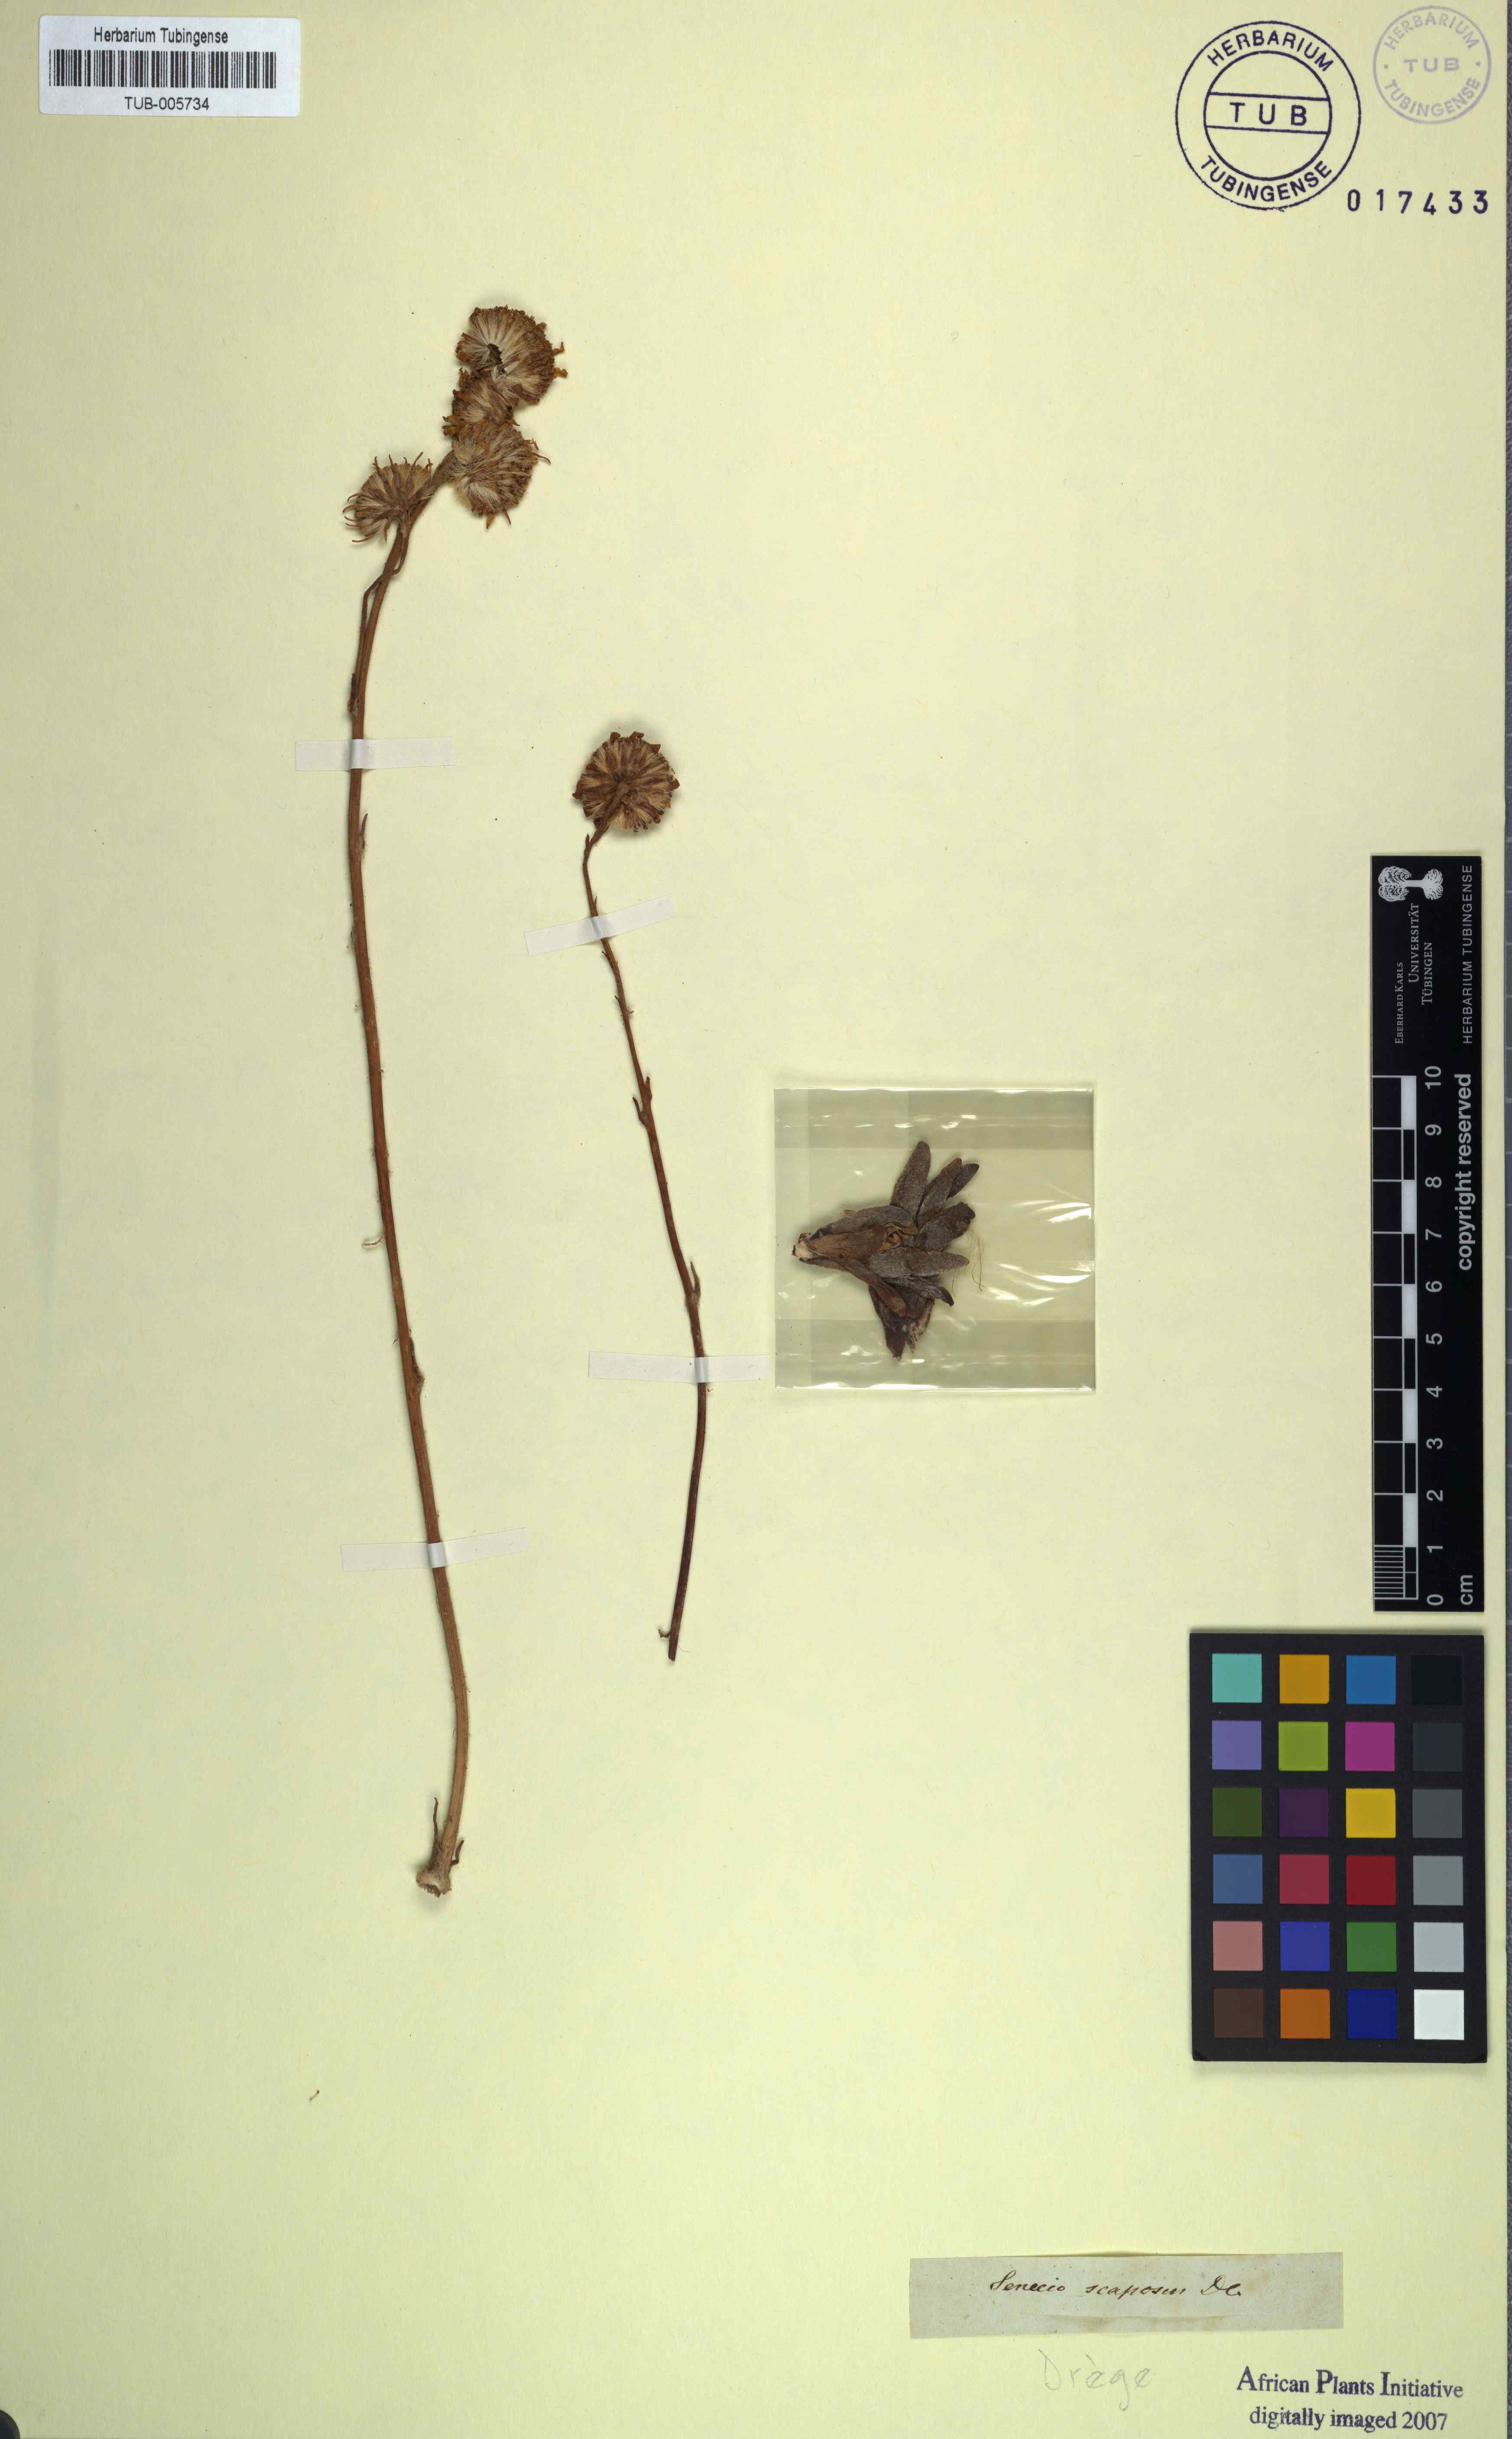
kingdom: Plantae
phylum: Tracheophyta
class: Magnoliopsida
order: Asterales
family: Asteraceae
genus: Caputia
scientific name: Caputia scaposa
